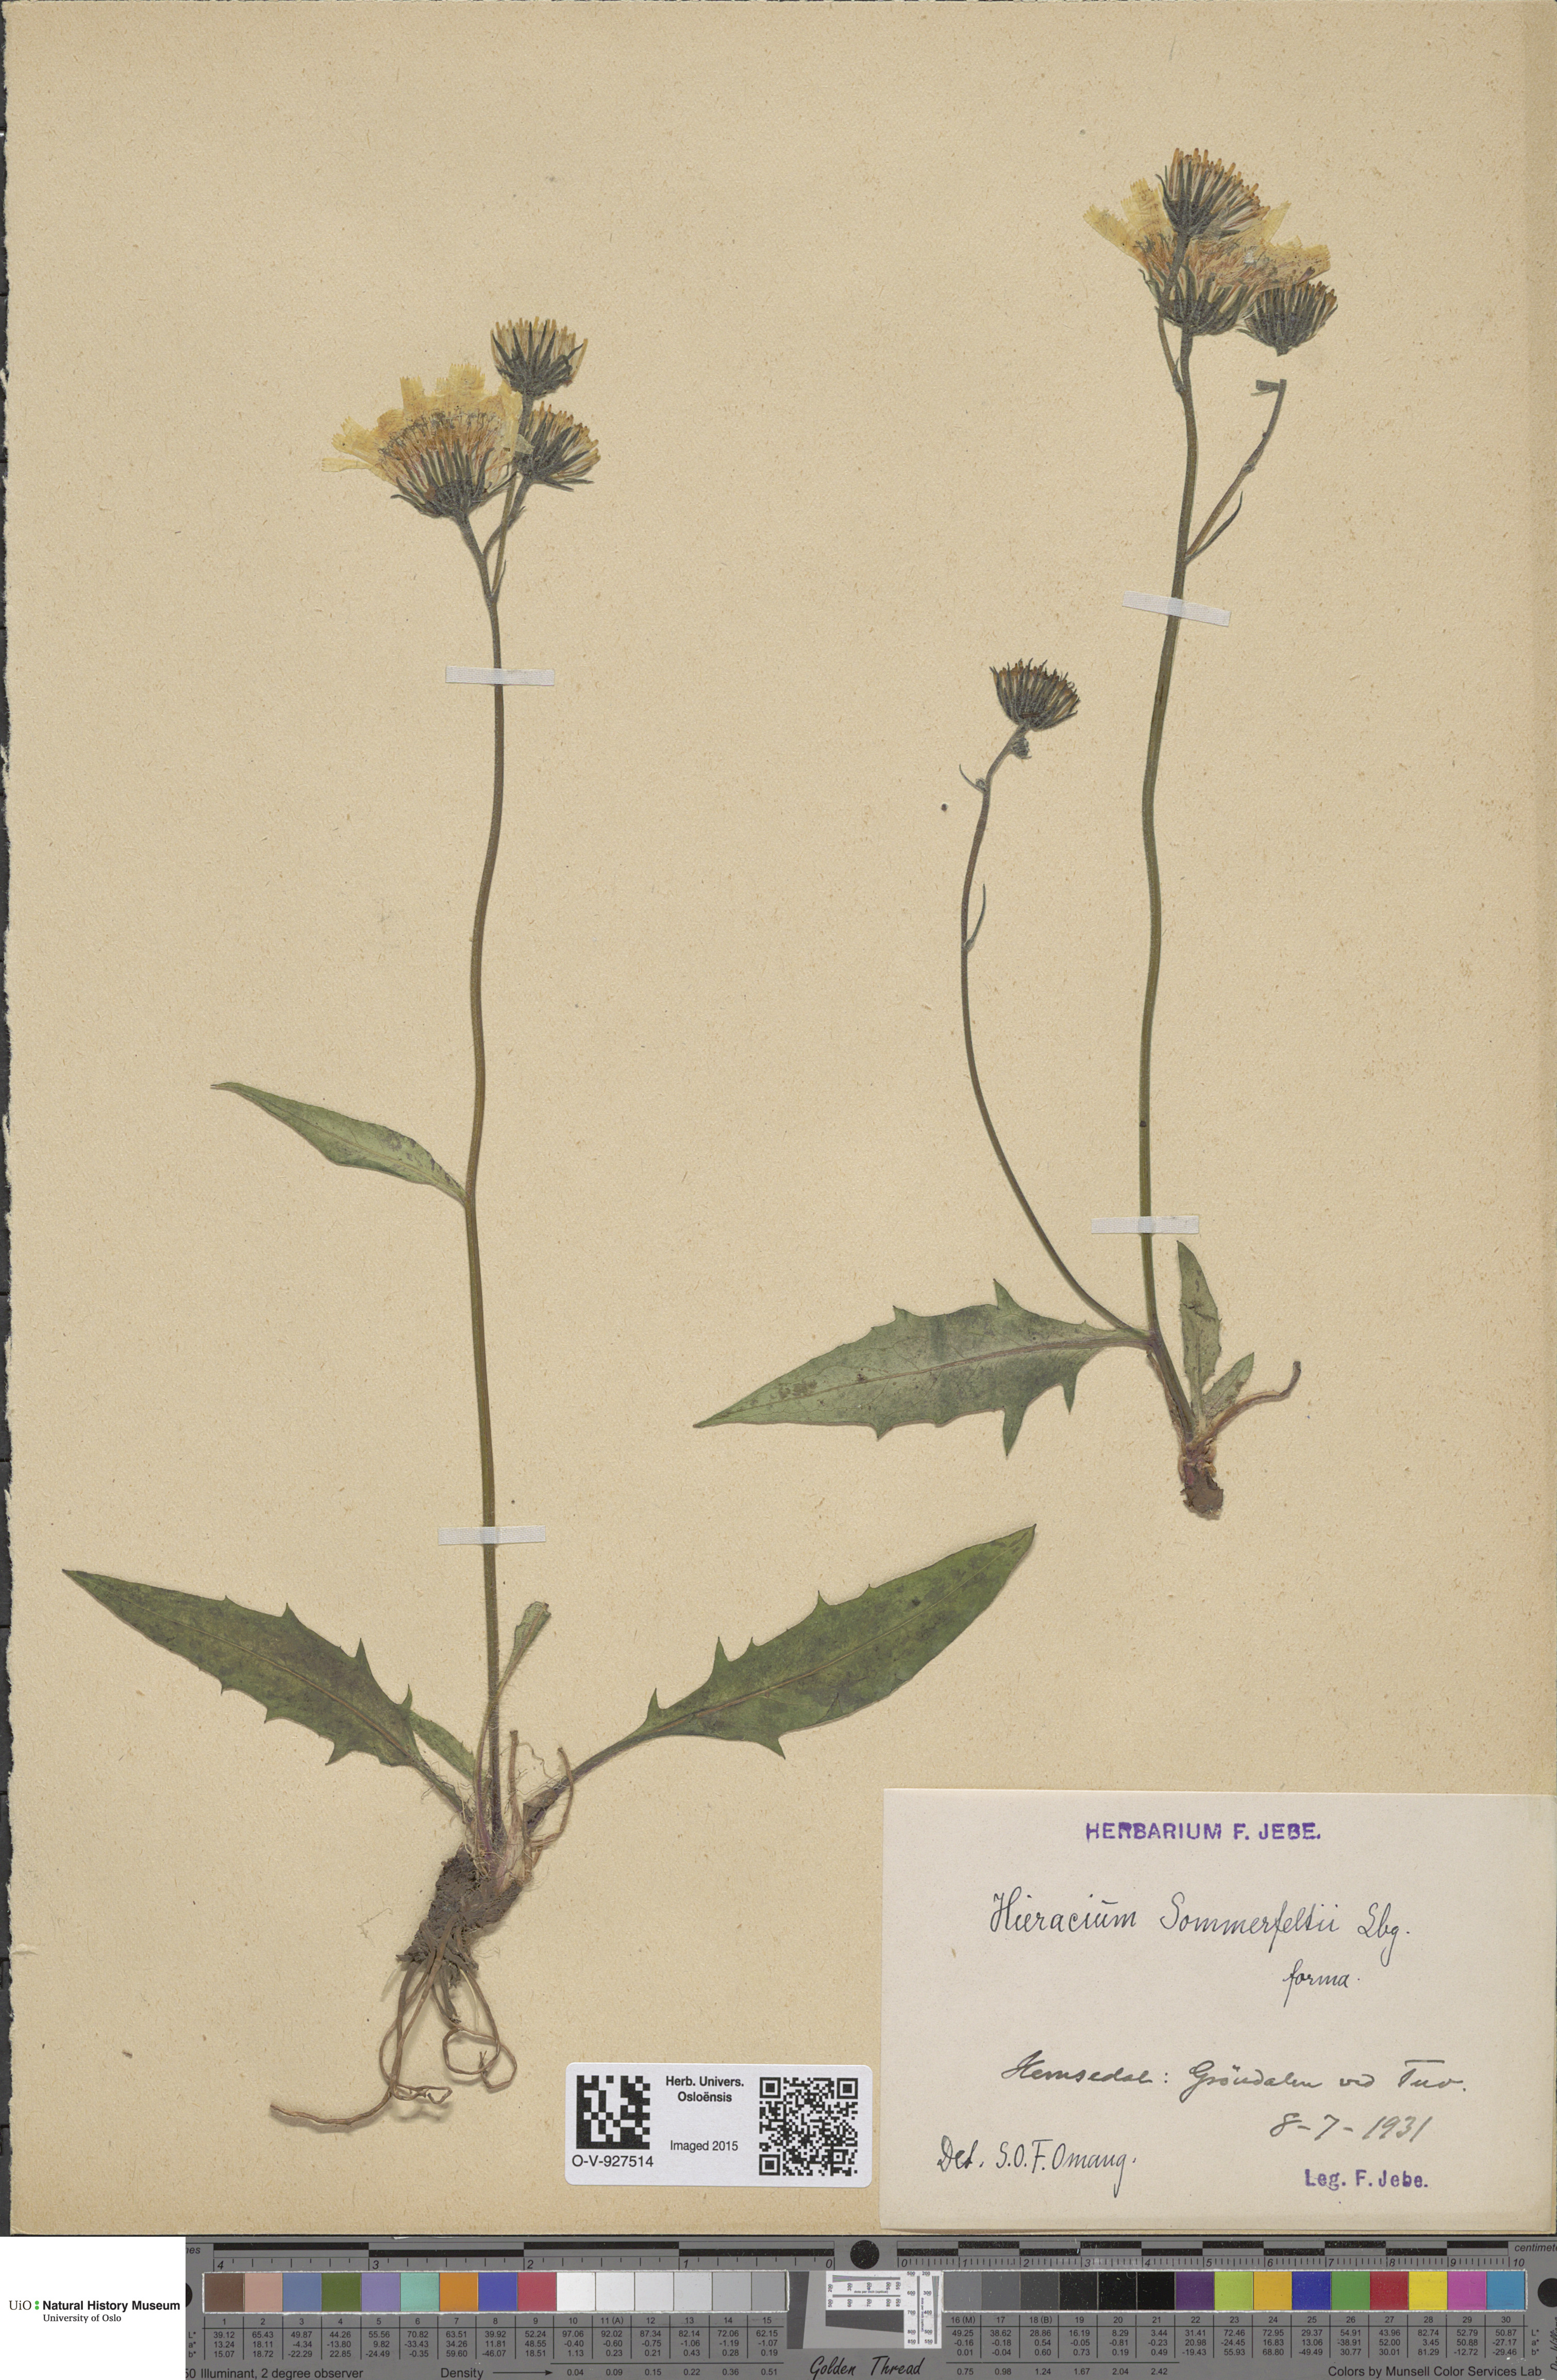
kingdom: Plantae
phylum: Tracheophyta
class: Magnoliopsida
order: Asterales
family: Asteraceae
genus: Hieracium
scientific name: Hieracium sommerfeltii
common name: Sommerfelt's hawkweed
